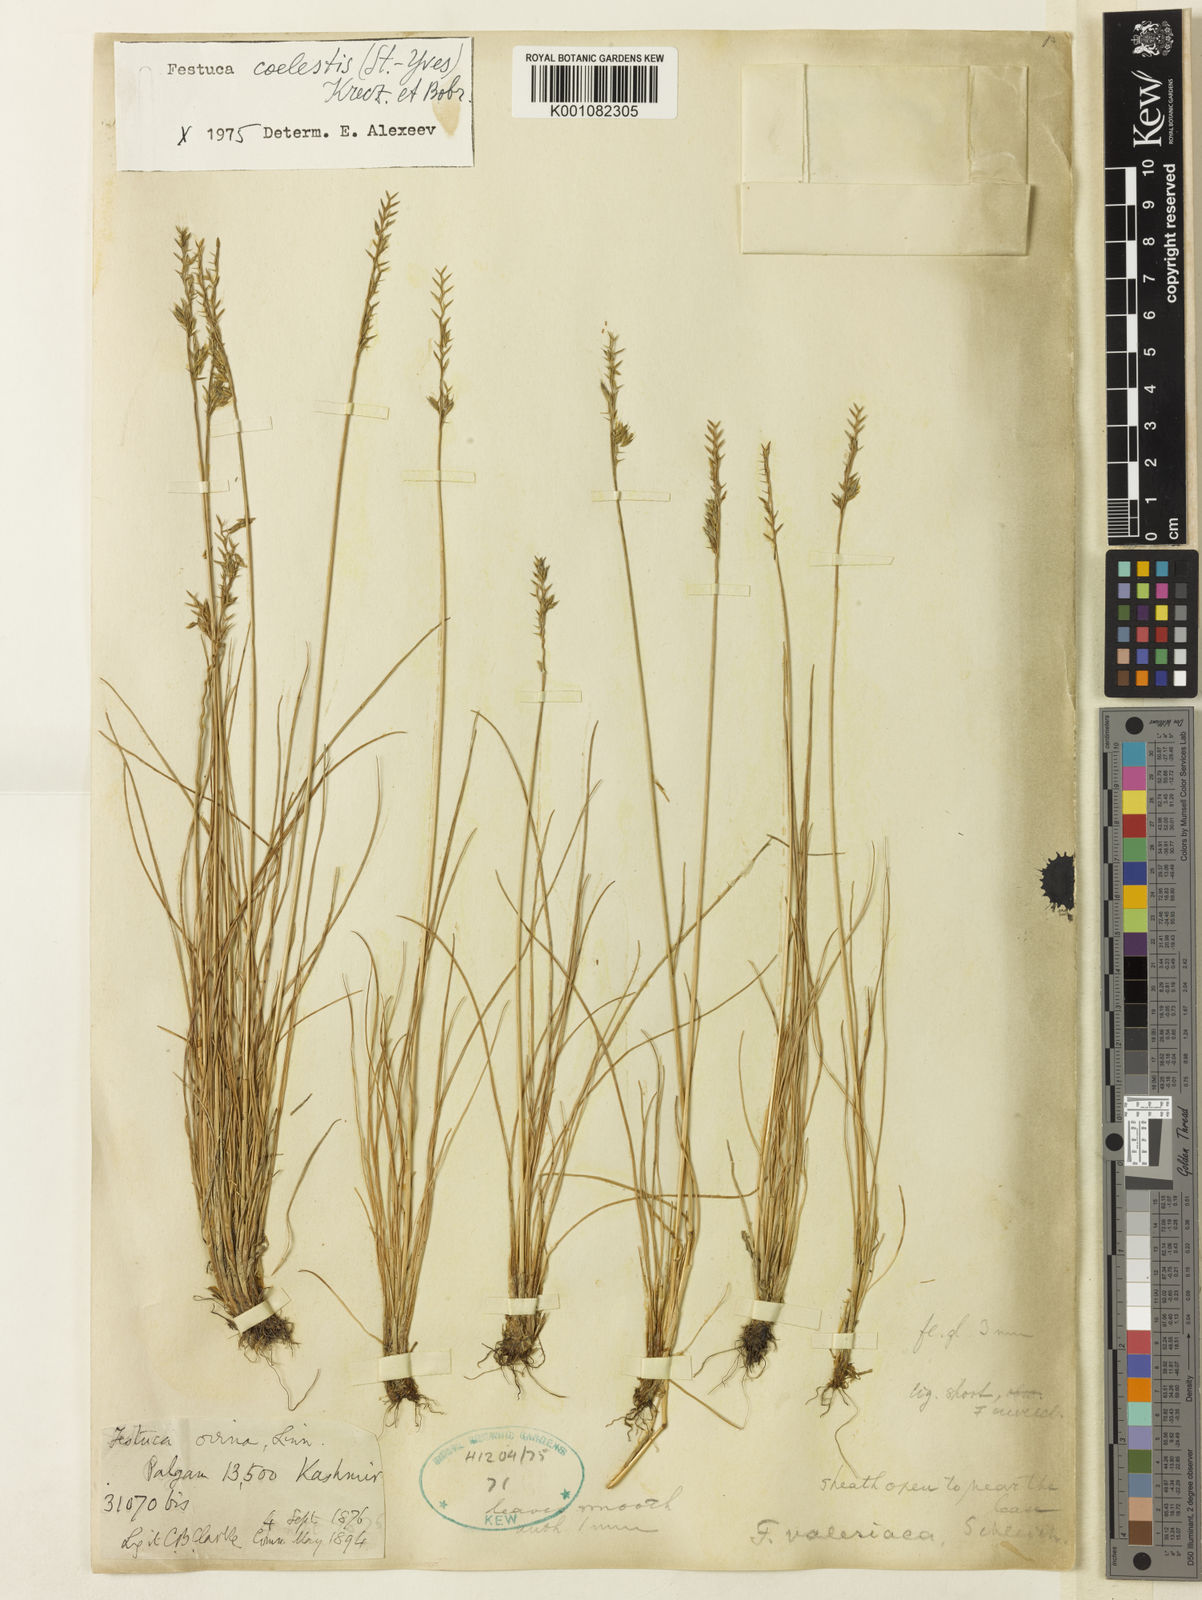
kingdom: Plantae
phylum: Tracheophyta
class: Liliopsida
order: Poales
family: Poaceae
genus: Festuca
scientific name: Festuca coelestis
